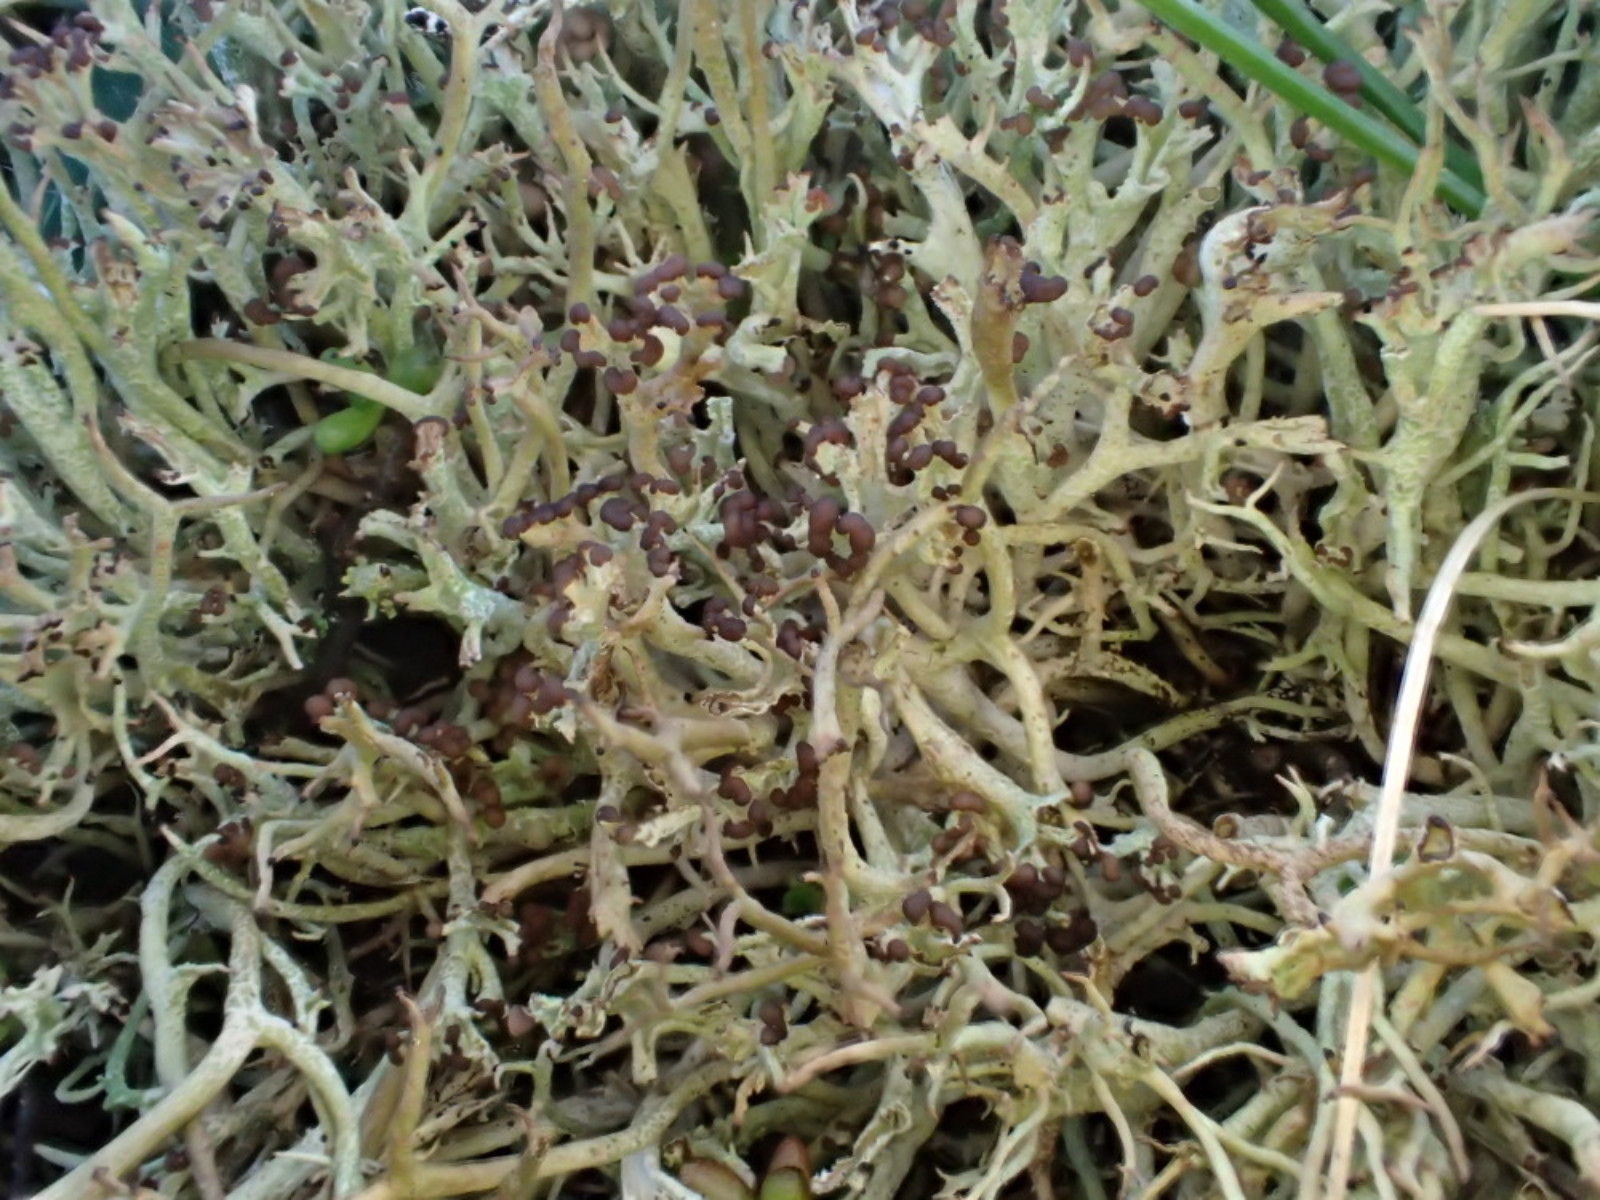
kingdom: Fungi
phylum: Ascomycota
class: Lecanoromycetes
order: Lecanorales
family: Cladoniaceae
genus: Cladonia
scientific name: Cladonia furcata
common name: kløftet bægerlav
